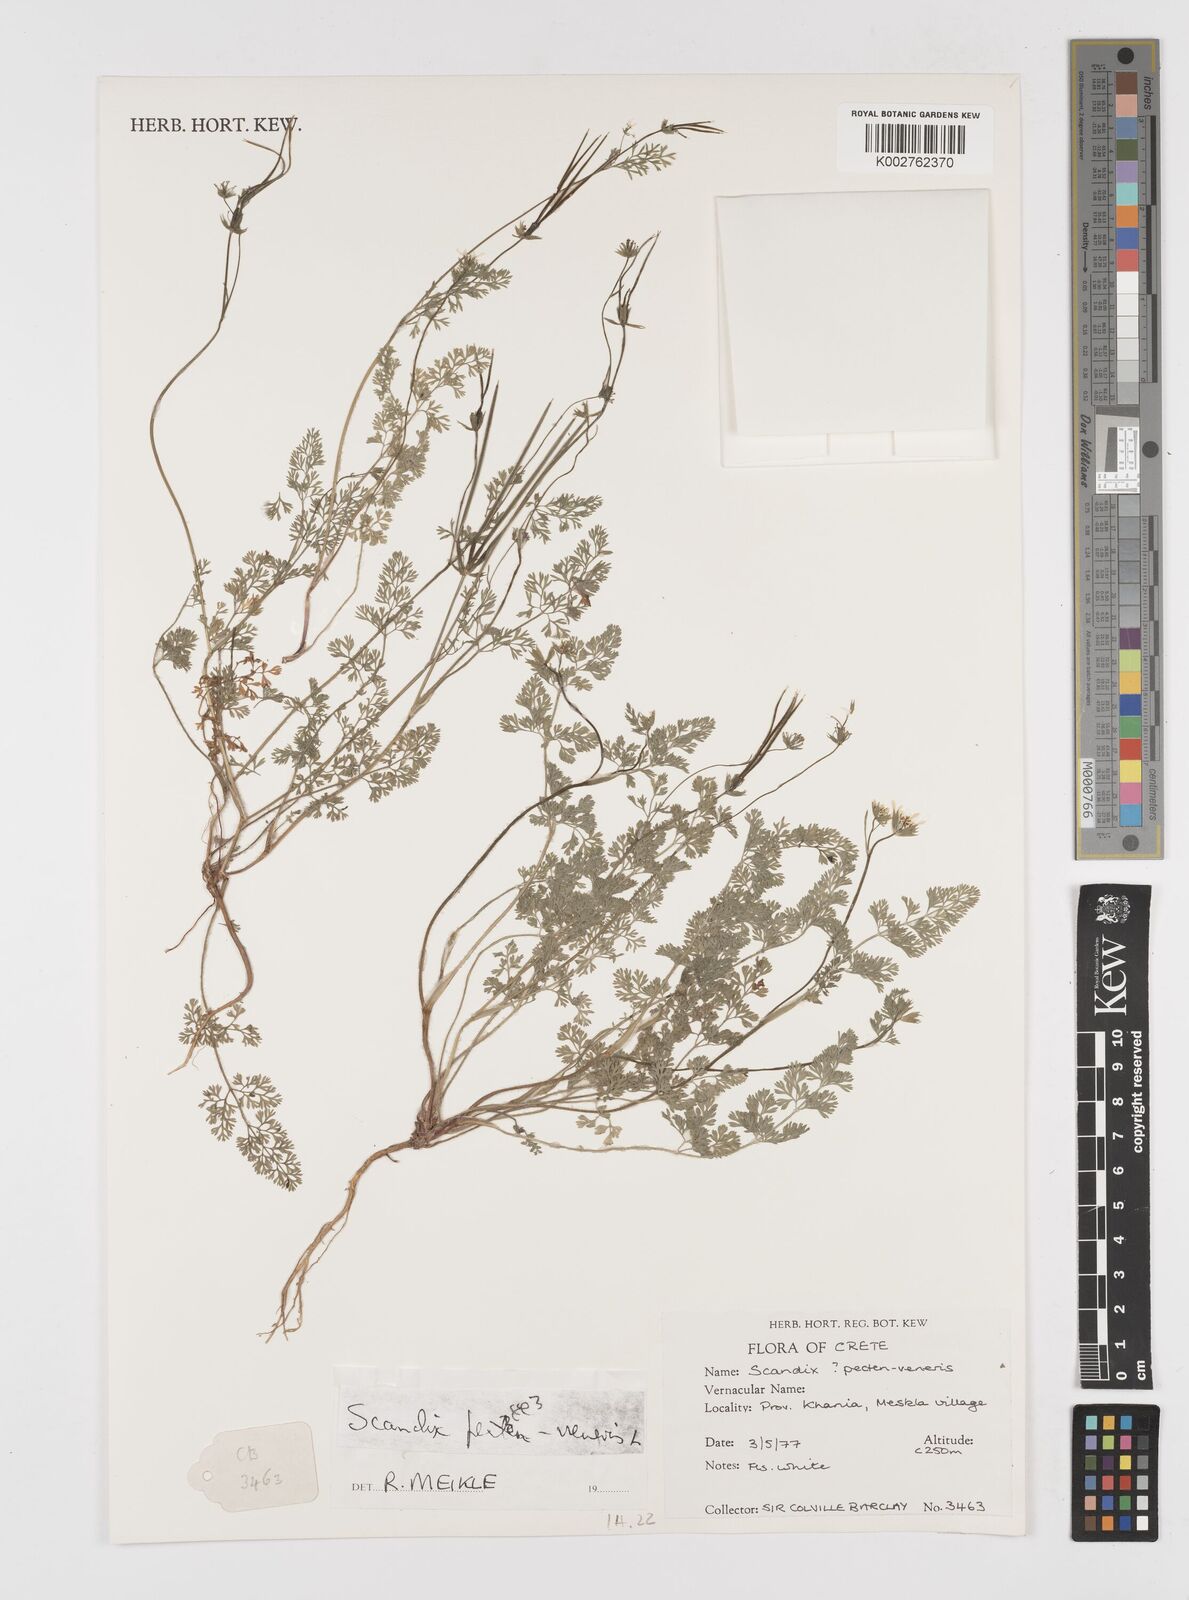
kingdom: Plantae
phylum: Tracheophyta
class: Magnoliopsida
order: Apiales
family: Apiaceae
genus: Scandix
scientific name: Scandix pecten-veneris
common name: Shepherd's-needle
